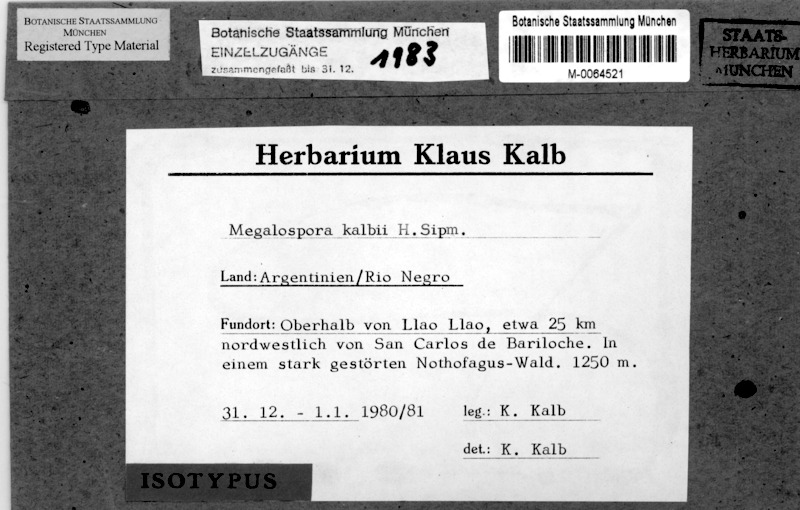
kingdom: Fungi
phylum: Ascomycota
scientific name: Ascomycota
